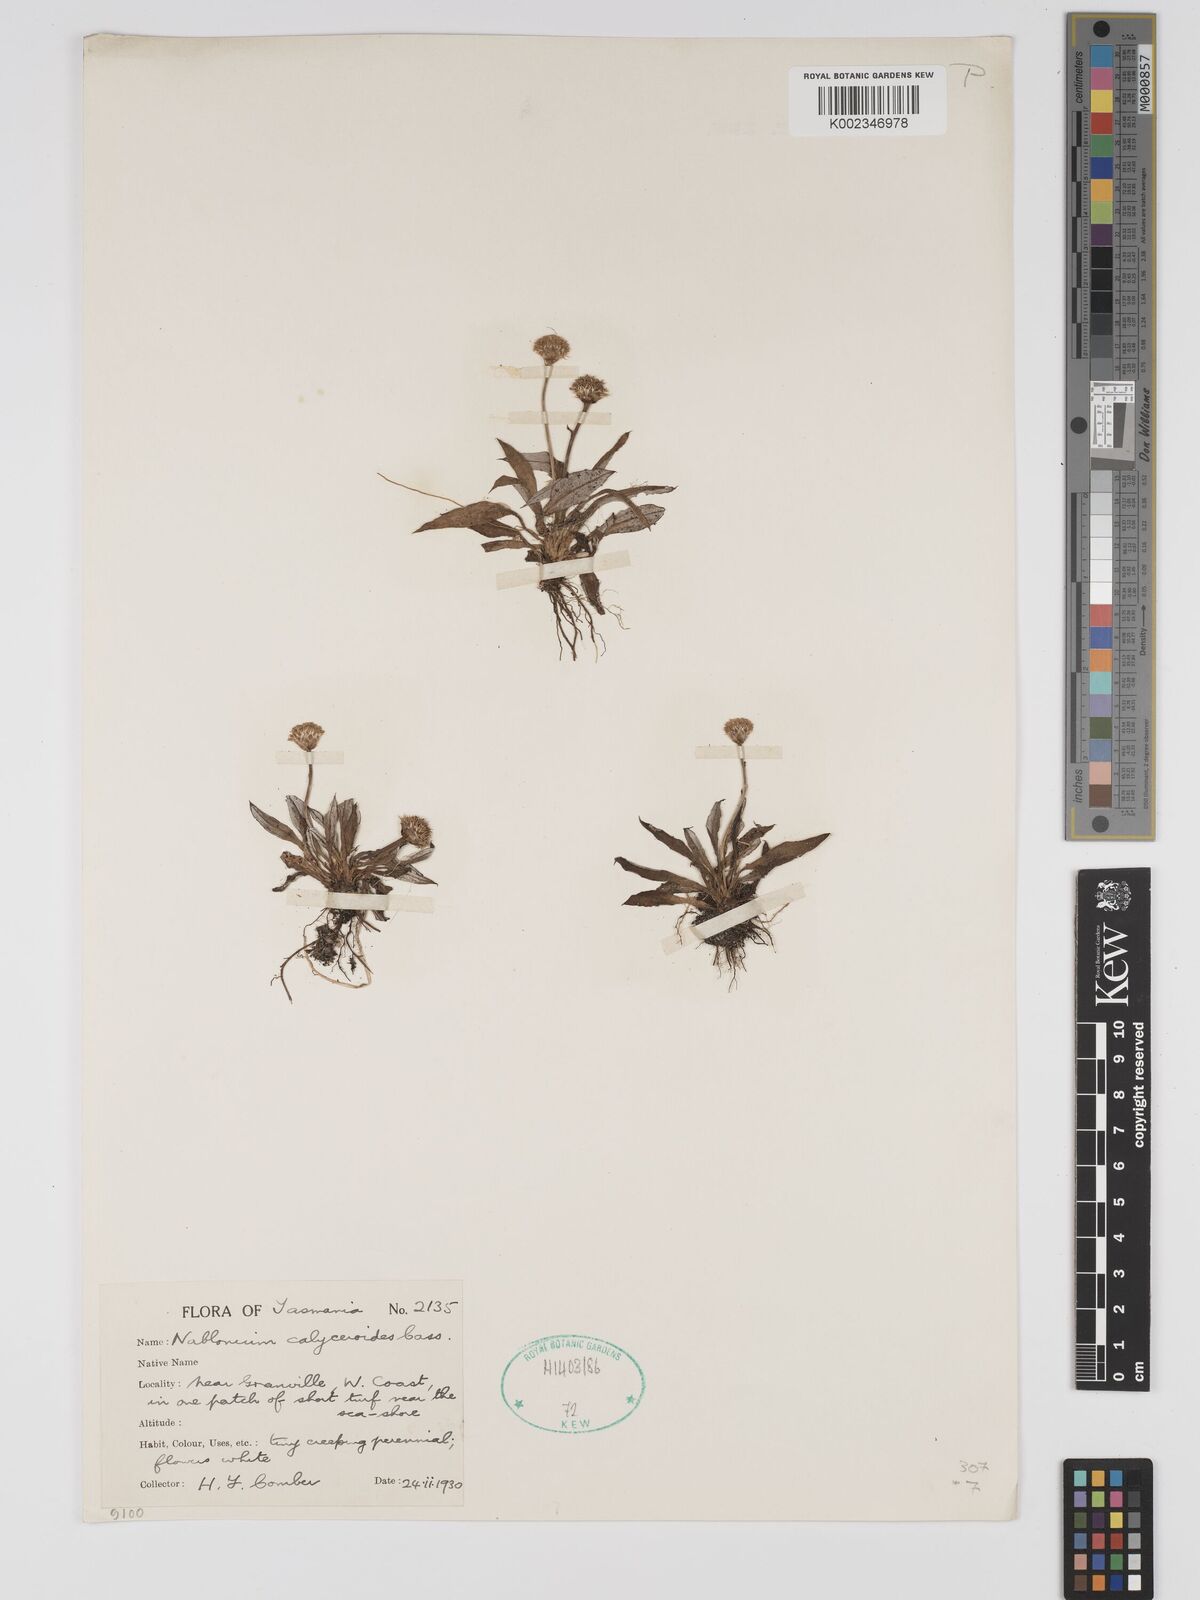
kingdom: Plantae
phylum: Tracheophyta
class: Magnoliopsida
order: Asterales
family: Asteraceae
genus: Ammobium
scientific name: Ammobium calyceroides
